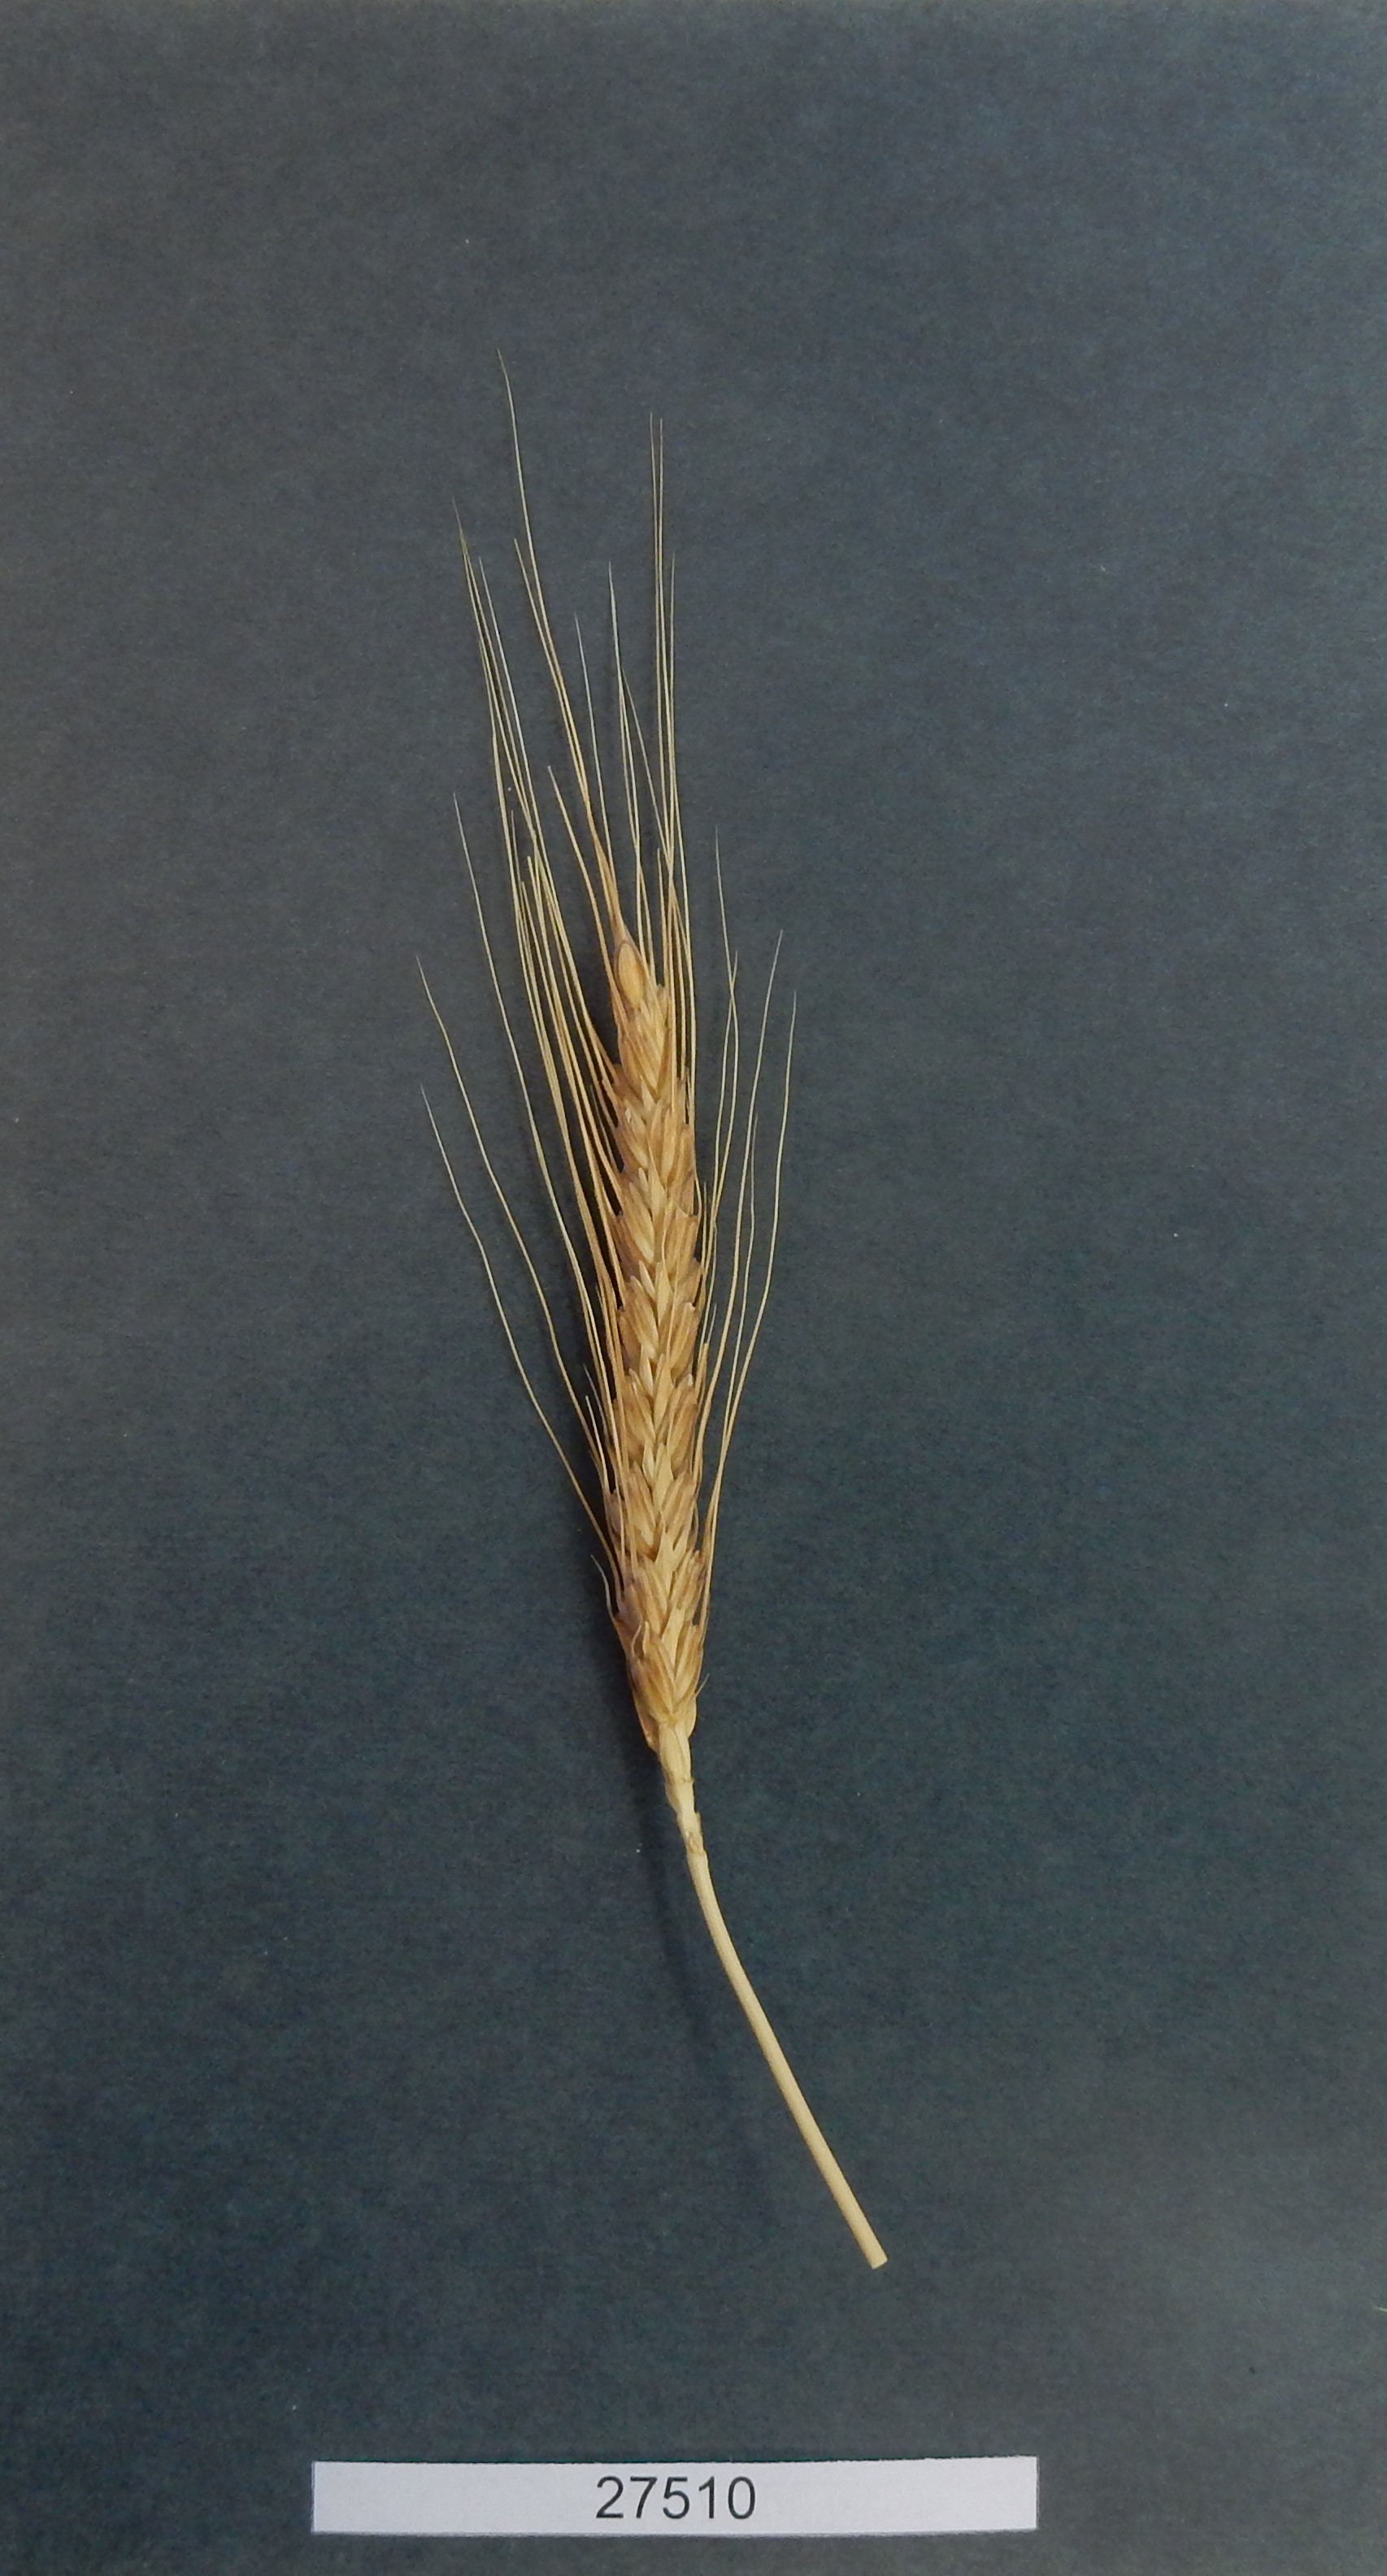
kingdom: Plantae
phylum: Tracheophyta
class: Liliopsida
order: Poales
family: Poaceae
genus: Triticum
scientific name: Triticum aestivum
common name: Common wheat
